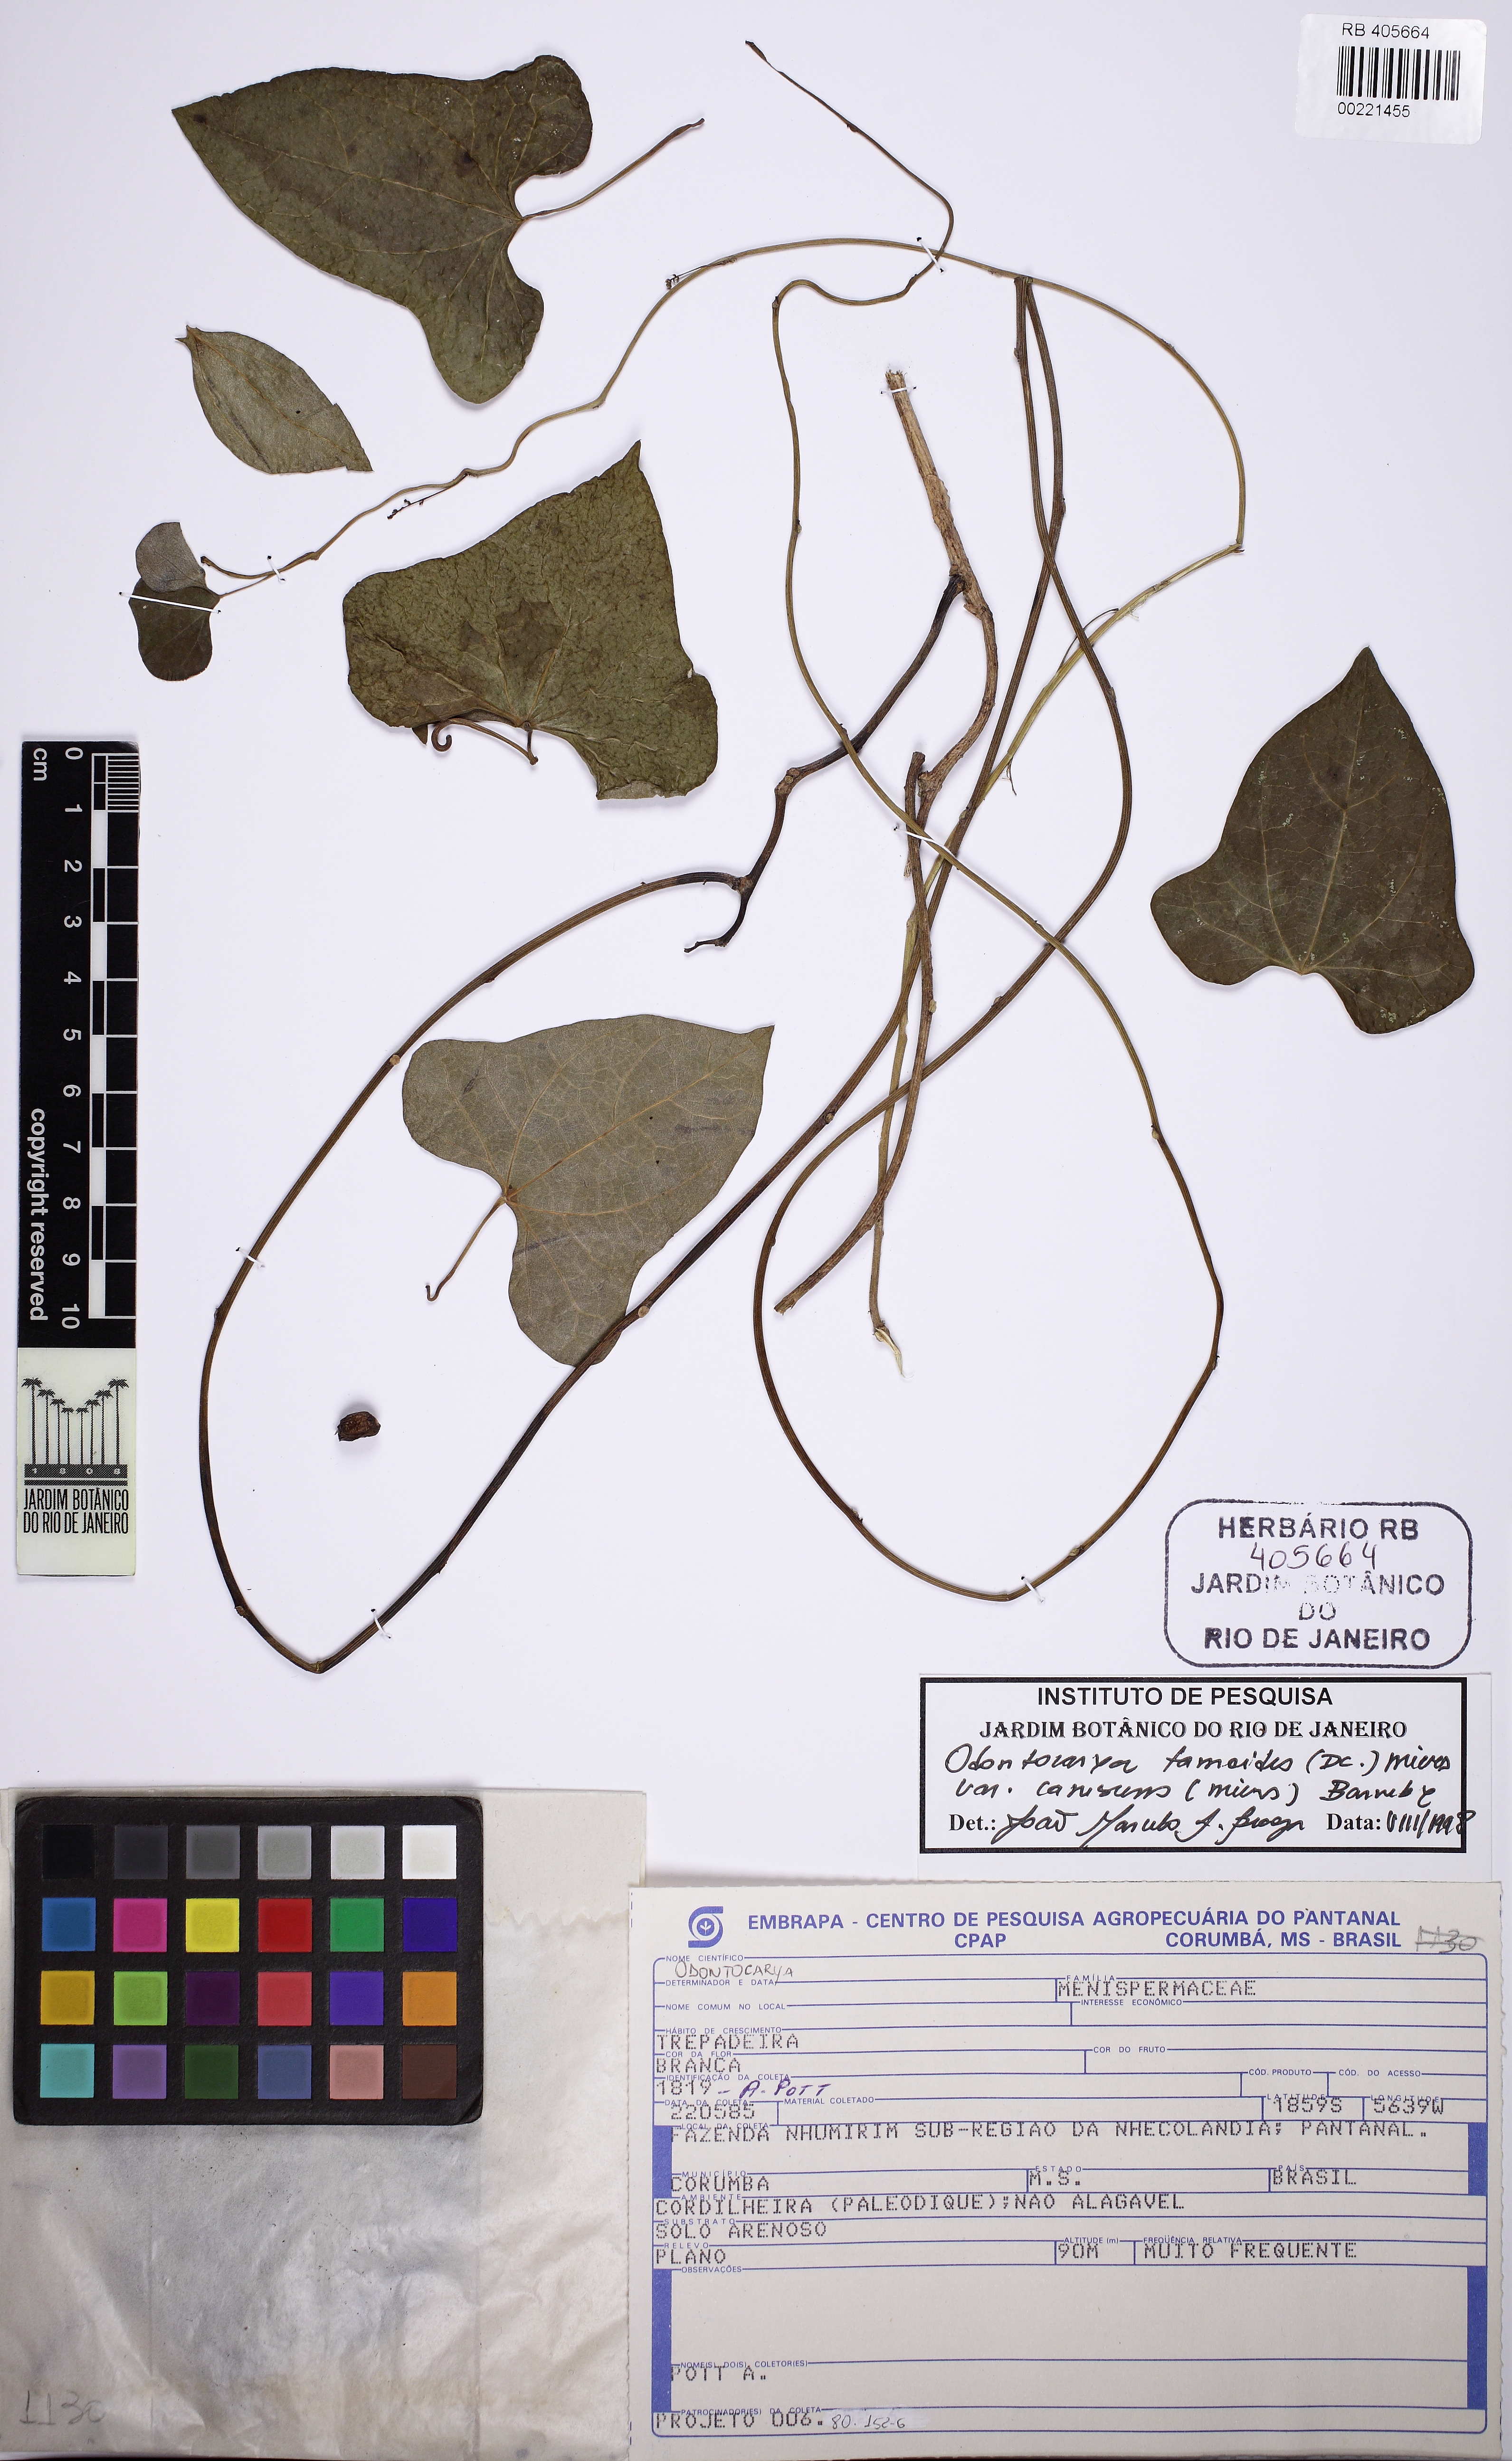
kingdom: Plantae
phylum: Tracheophyta
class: Magnoliopsida
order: Ranunculales
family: Menispermaceae
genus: Odontocarya
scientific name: Odontocarya tamoides
